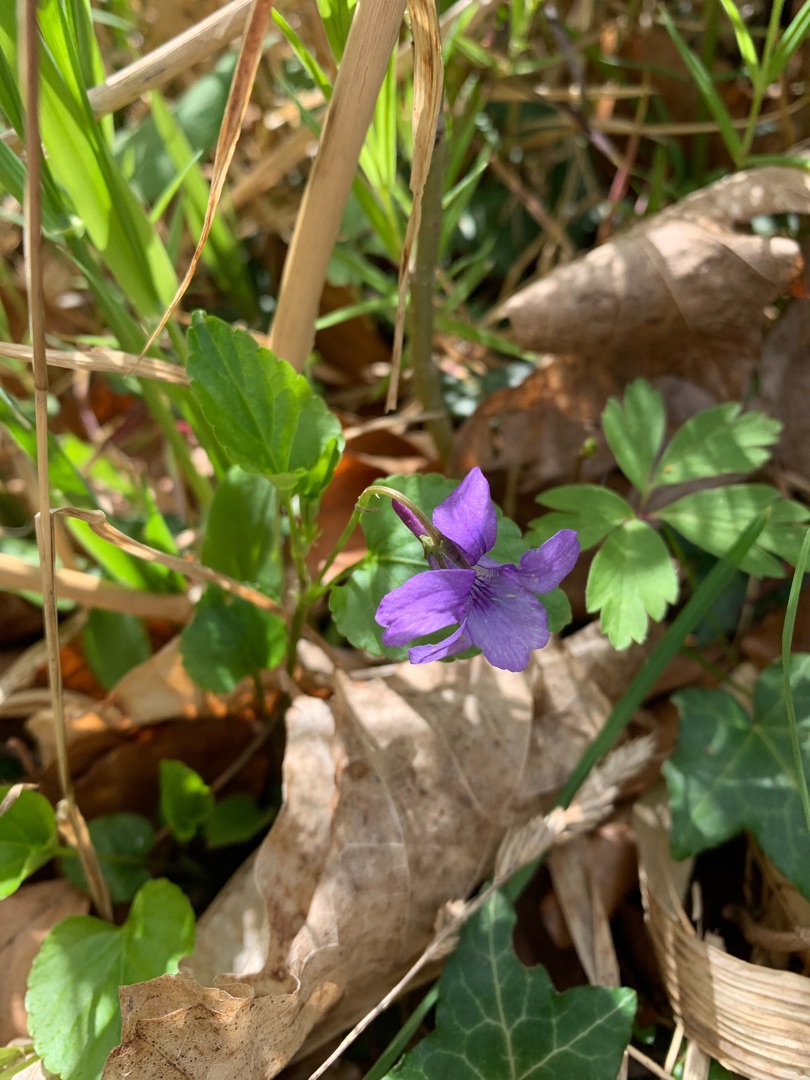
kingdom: Plantae
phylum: Tracheophyta
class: Magnoliopsida
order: Malpighiales
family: Violaceae
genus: Viola
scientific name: Viola reichenbachiana
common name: Skov-viol
